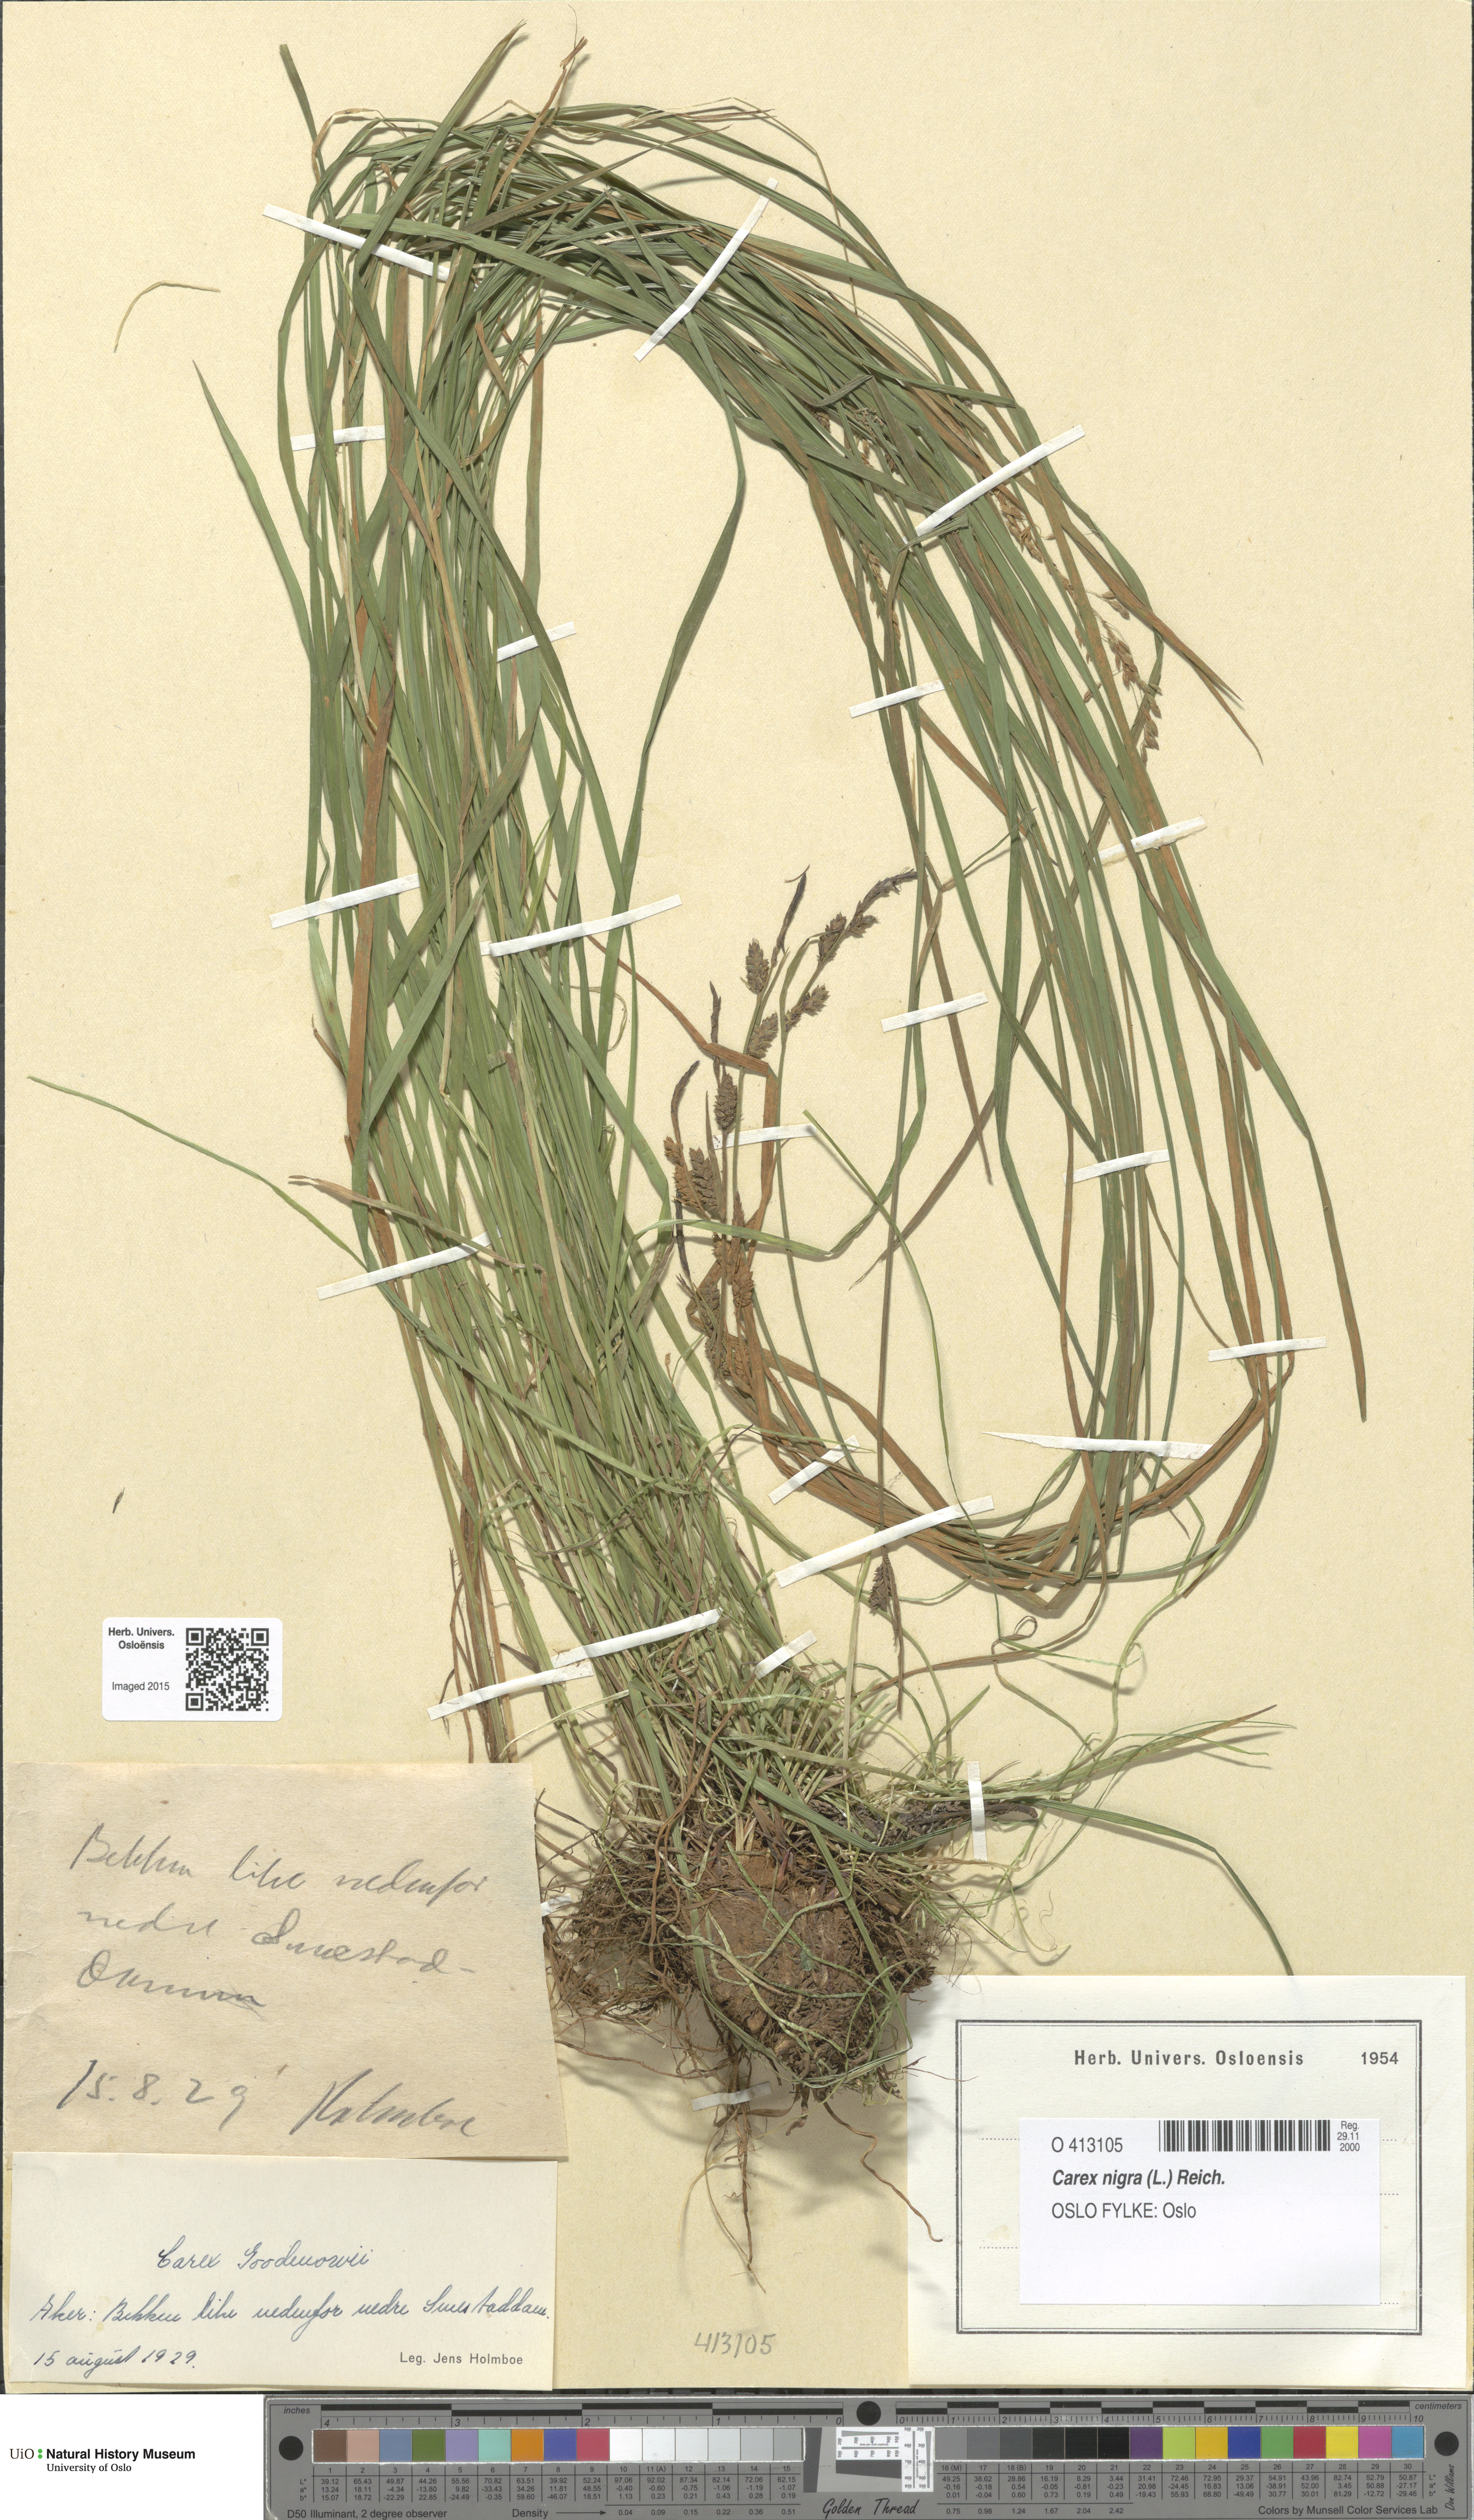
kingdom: Plantae
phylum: Tracheophyta
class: Liliopsida
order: Poales
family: Cyperaceae
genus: Carex
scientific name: Carex nigra
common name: Common sedge
